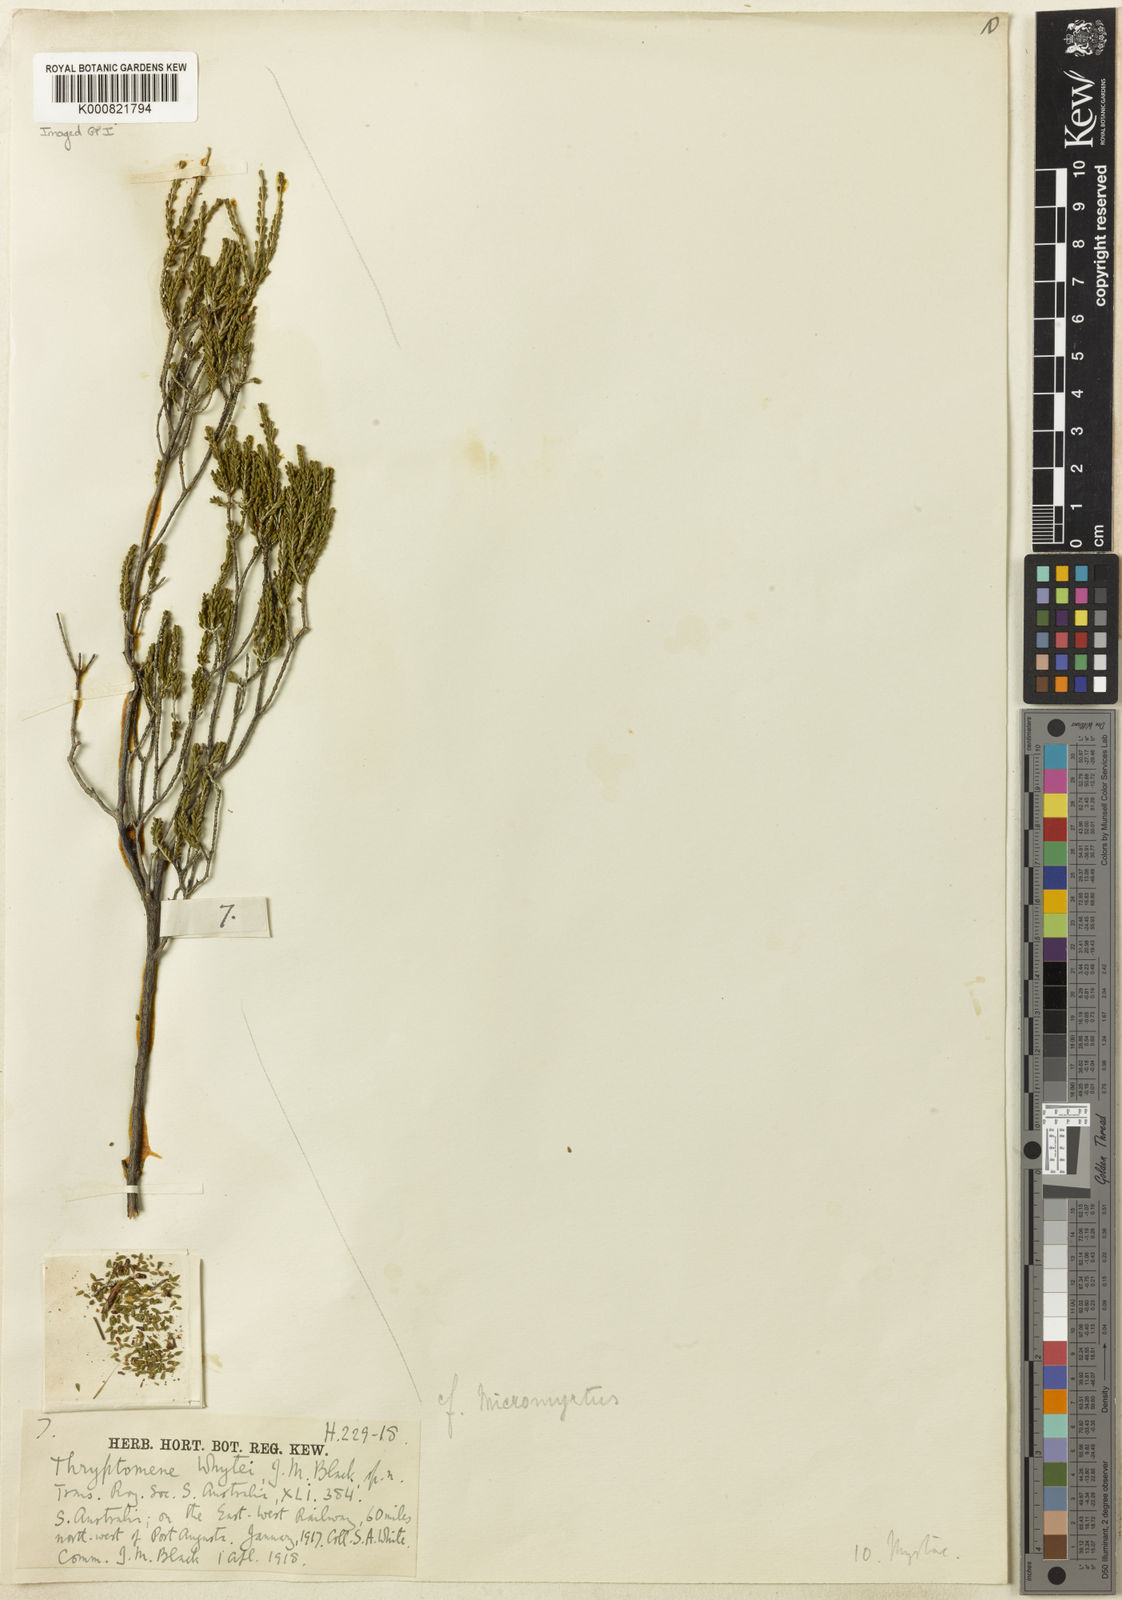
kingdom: Plantae
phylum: Tracheophyta
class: Magnoliopsida
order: Myrtales
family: Myrtaceae
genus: Thryptomene
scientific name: Thryptomene elliottii
